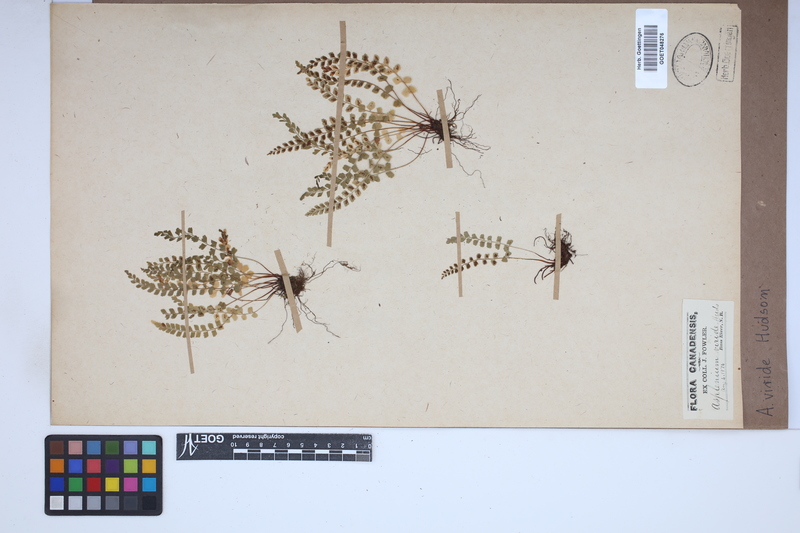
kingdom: Plantae
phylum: Tracheophyta
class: Polypodiopsida
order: Polypodiales
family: Aspleniaceae
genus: Asplenium
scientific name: Asplenium viride
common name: Green spleenwort
